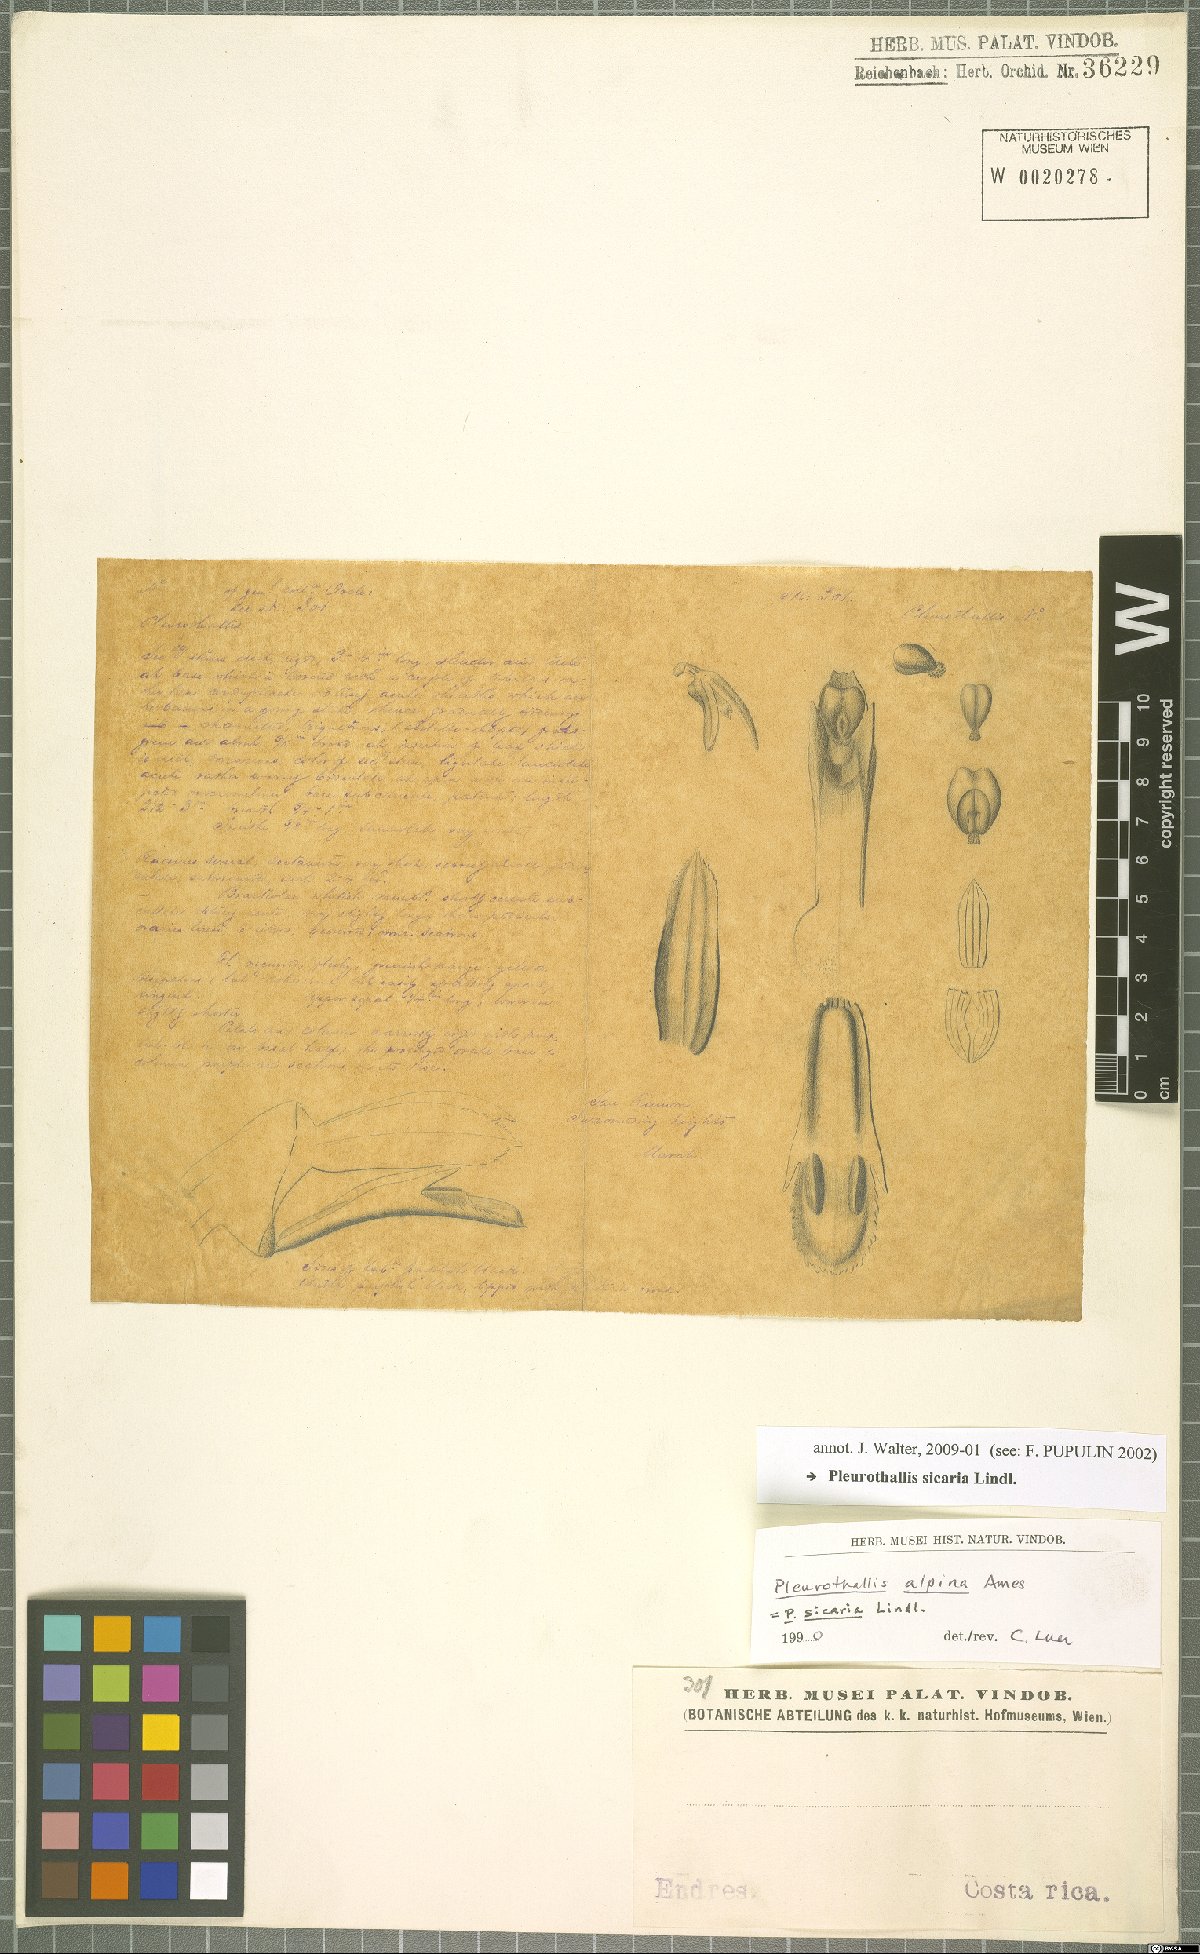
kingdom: Plantae
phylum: Tracheophyta
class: Liliopsida
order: Asparagales
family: Orchidaceae
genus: Acianthera
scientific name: Acianthera sicaria
